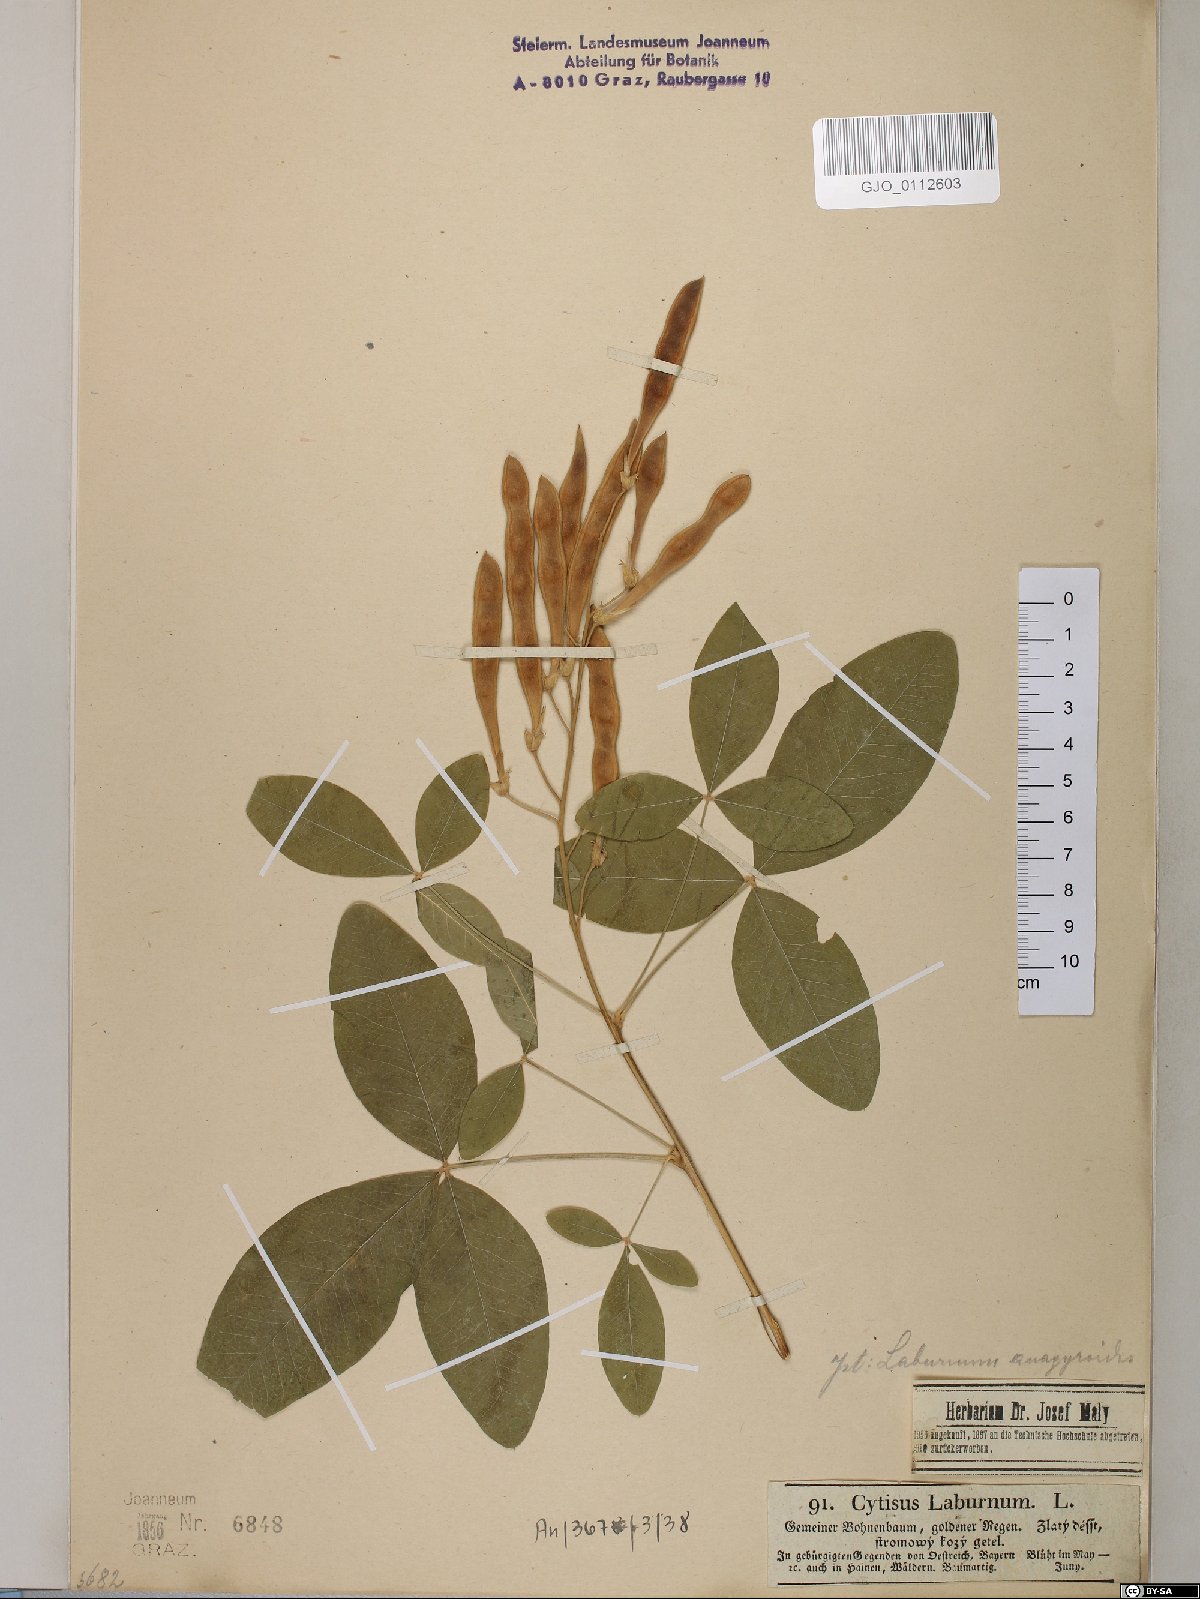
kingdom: Plantae
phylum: Tracheophyta
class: Magnoliopsida
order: Fabales
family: Fabaceae
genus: Laburnum
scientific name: Laburnum anagyroides
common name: Laburnum
